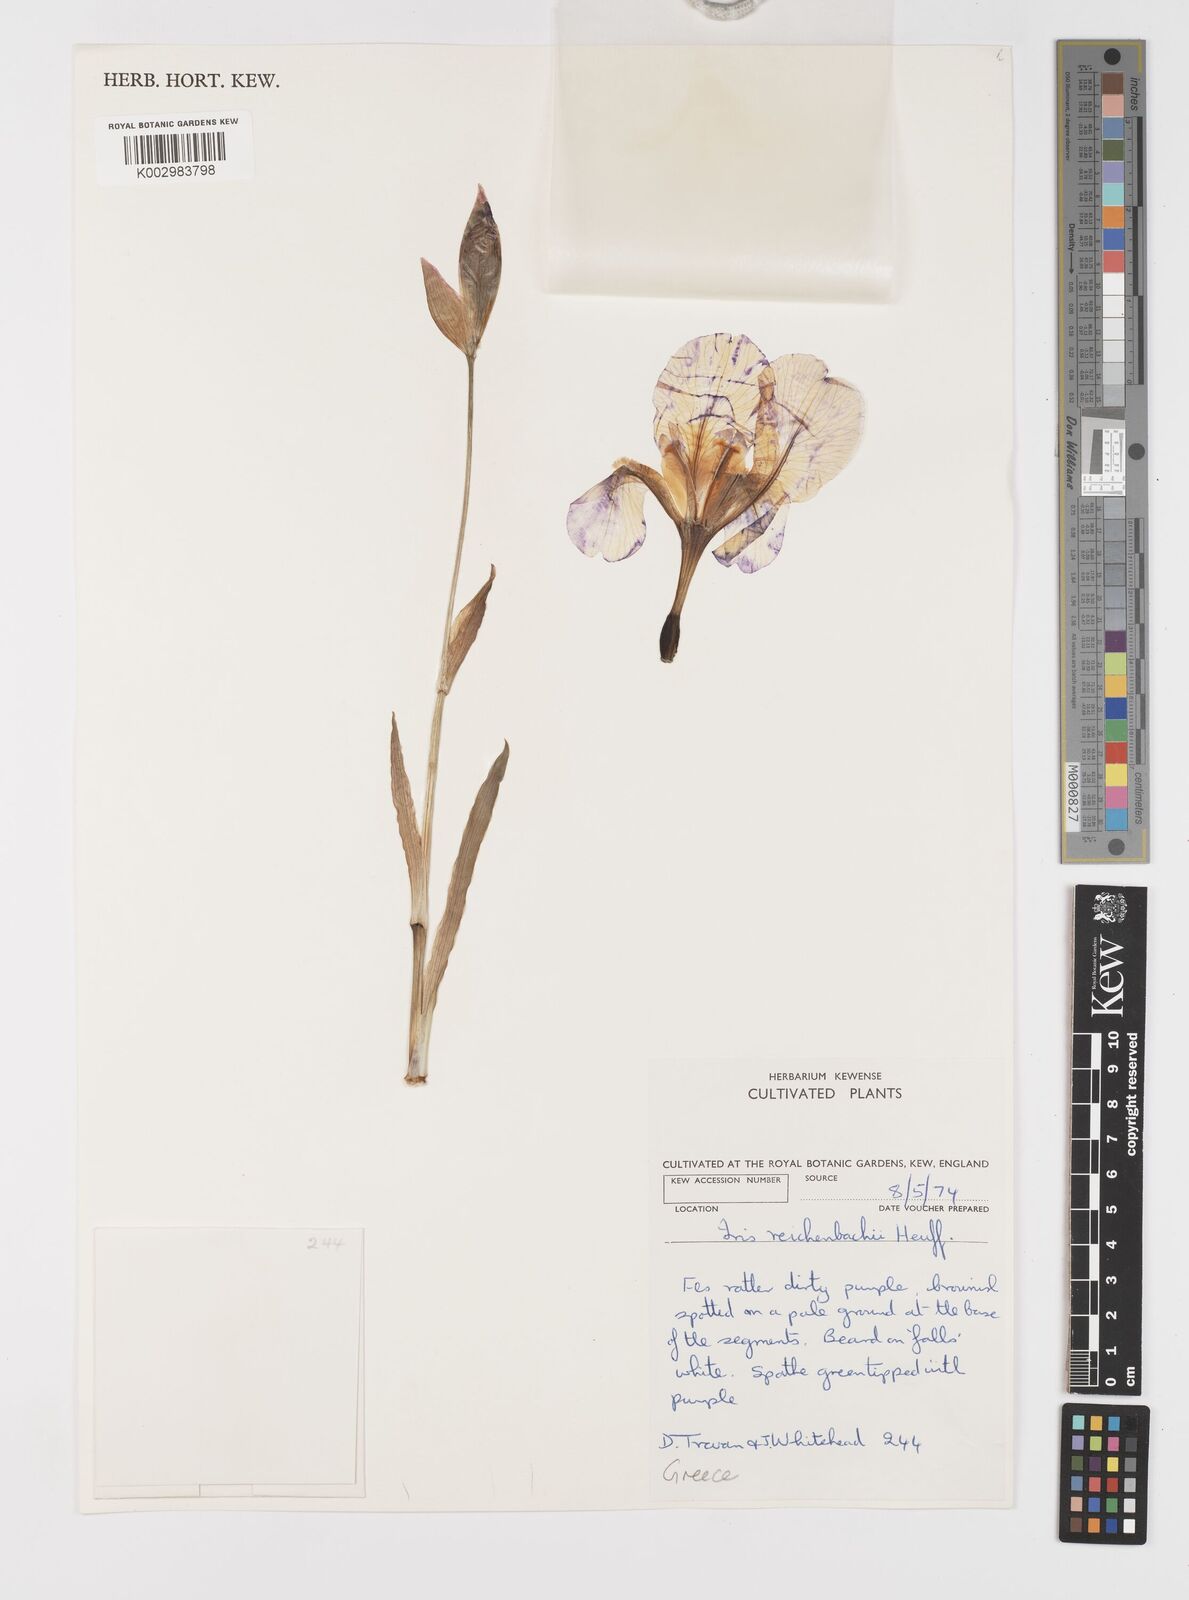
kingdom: Plantae
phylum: Tracheophyta
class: Liliopsida
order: Asparagales
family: Iridaceae
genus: Iris
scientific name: Iris reichenbachii
